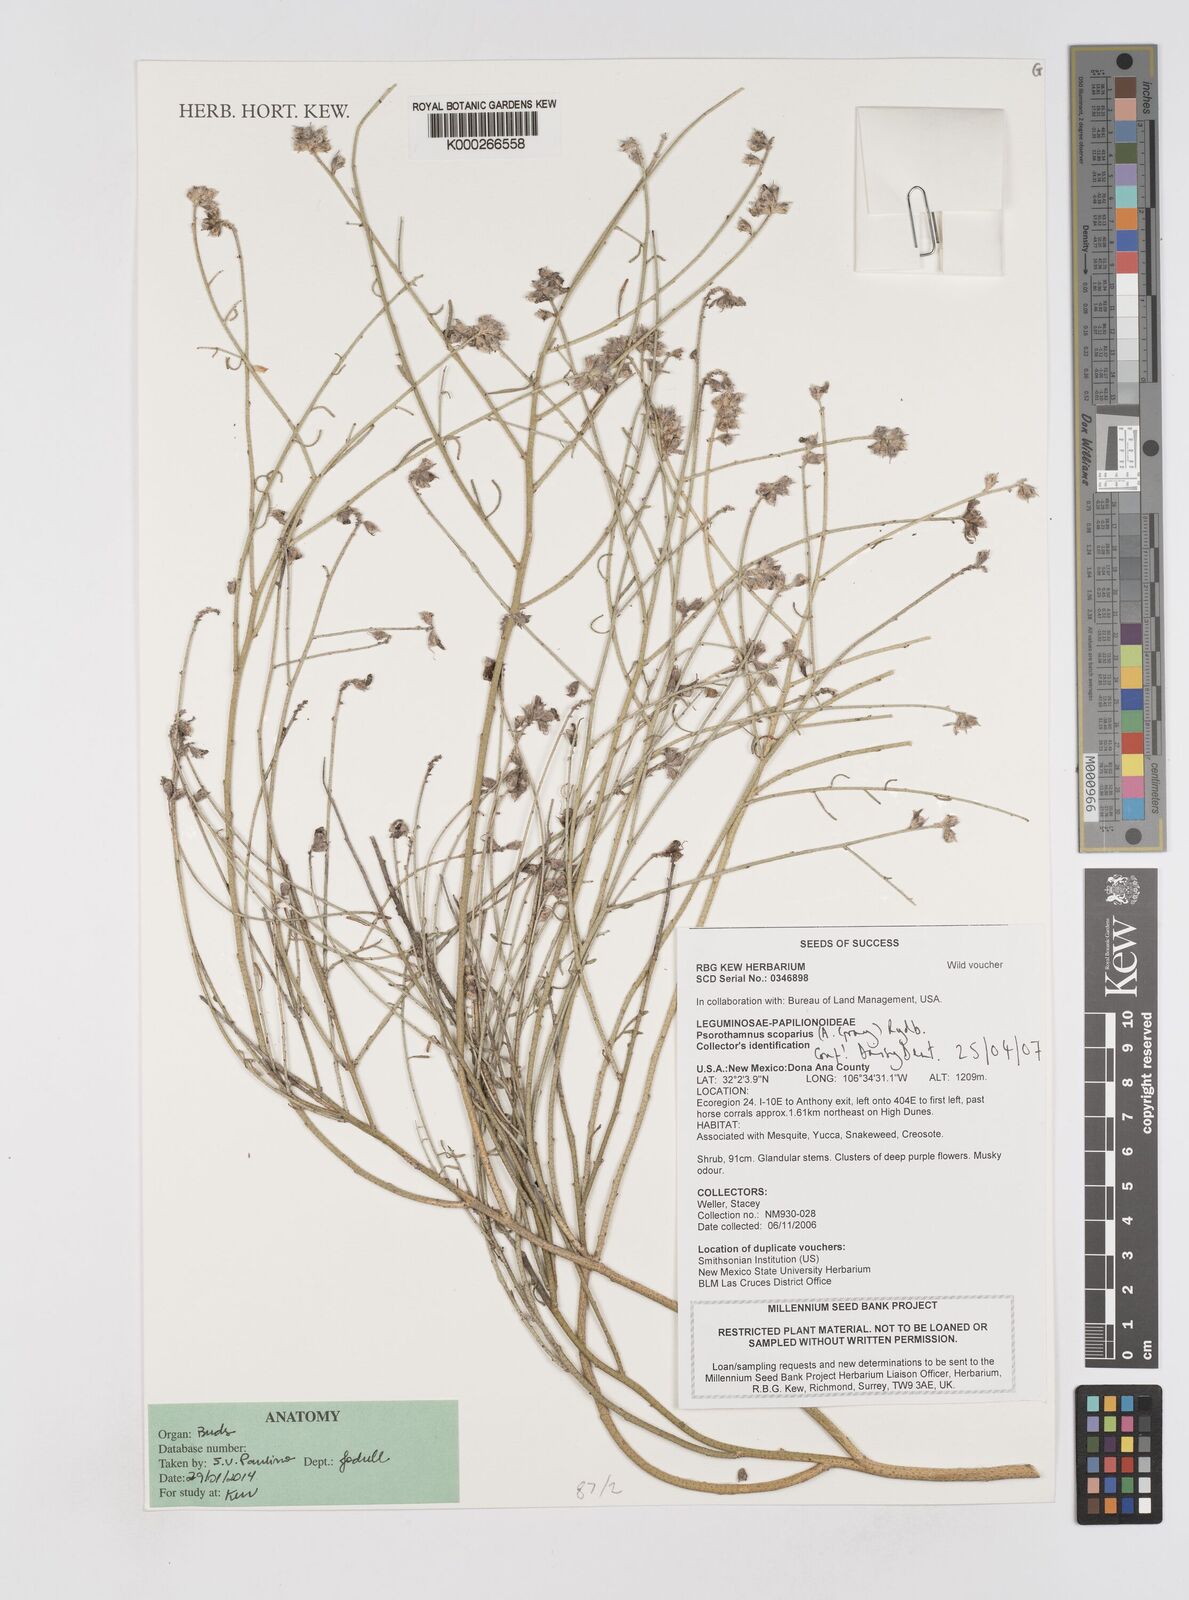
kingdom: Plantae
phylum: Tracheophyta
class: Magnoliopsida
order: Fabales
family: Fabaceae
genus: Eysenhardtia
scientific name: Eysenhardtia texana
